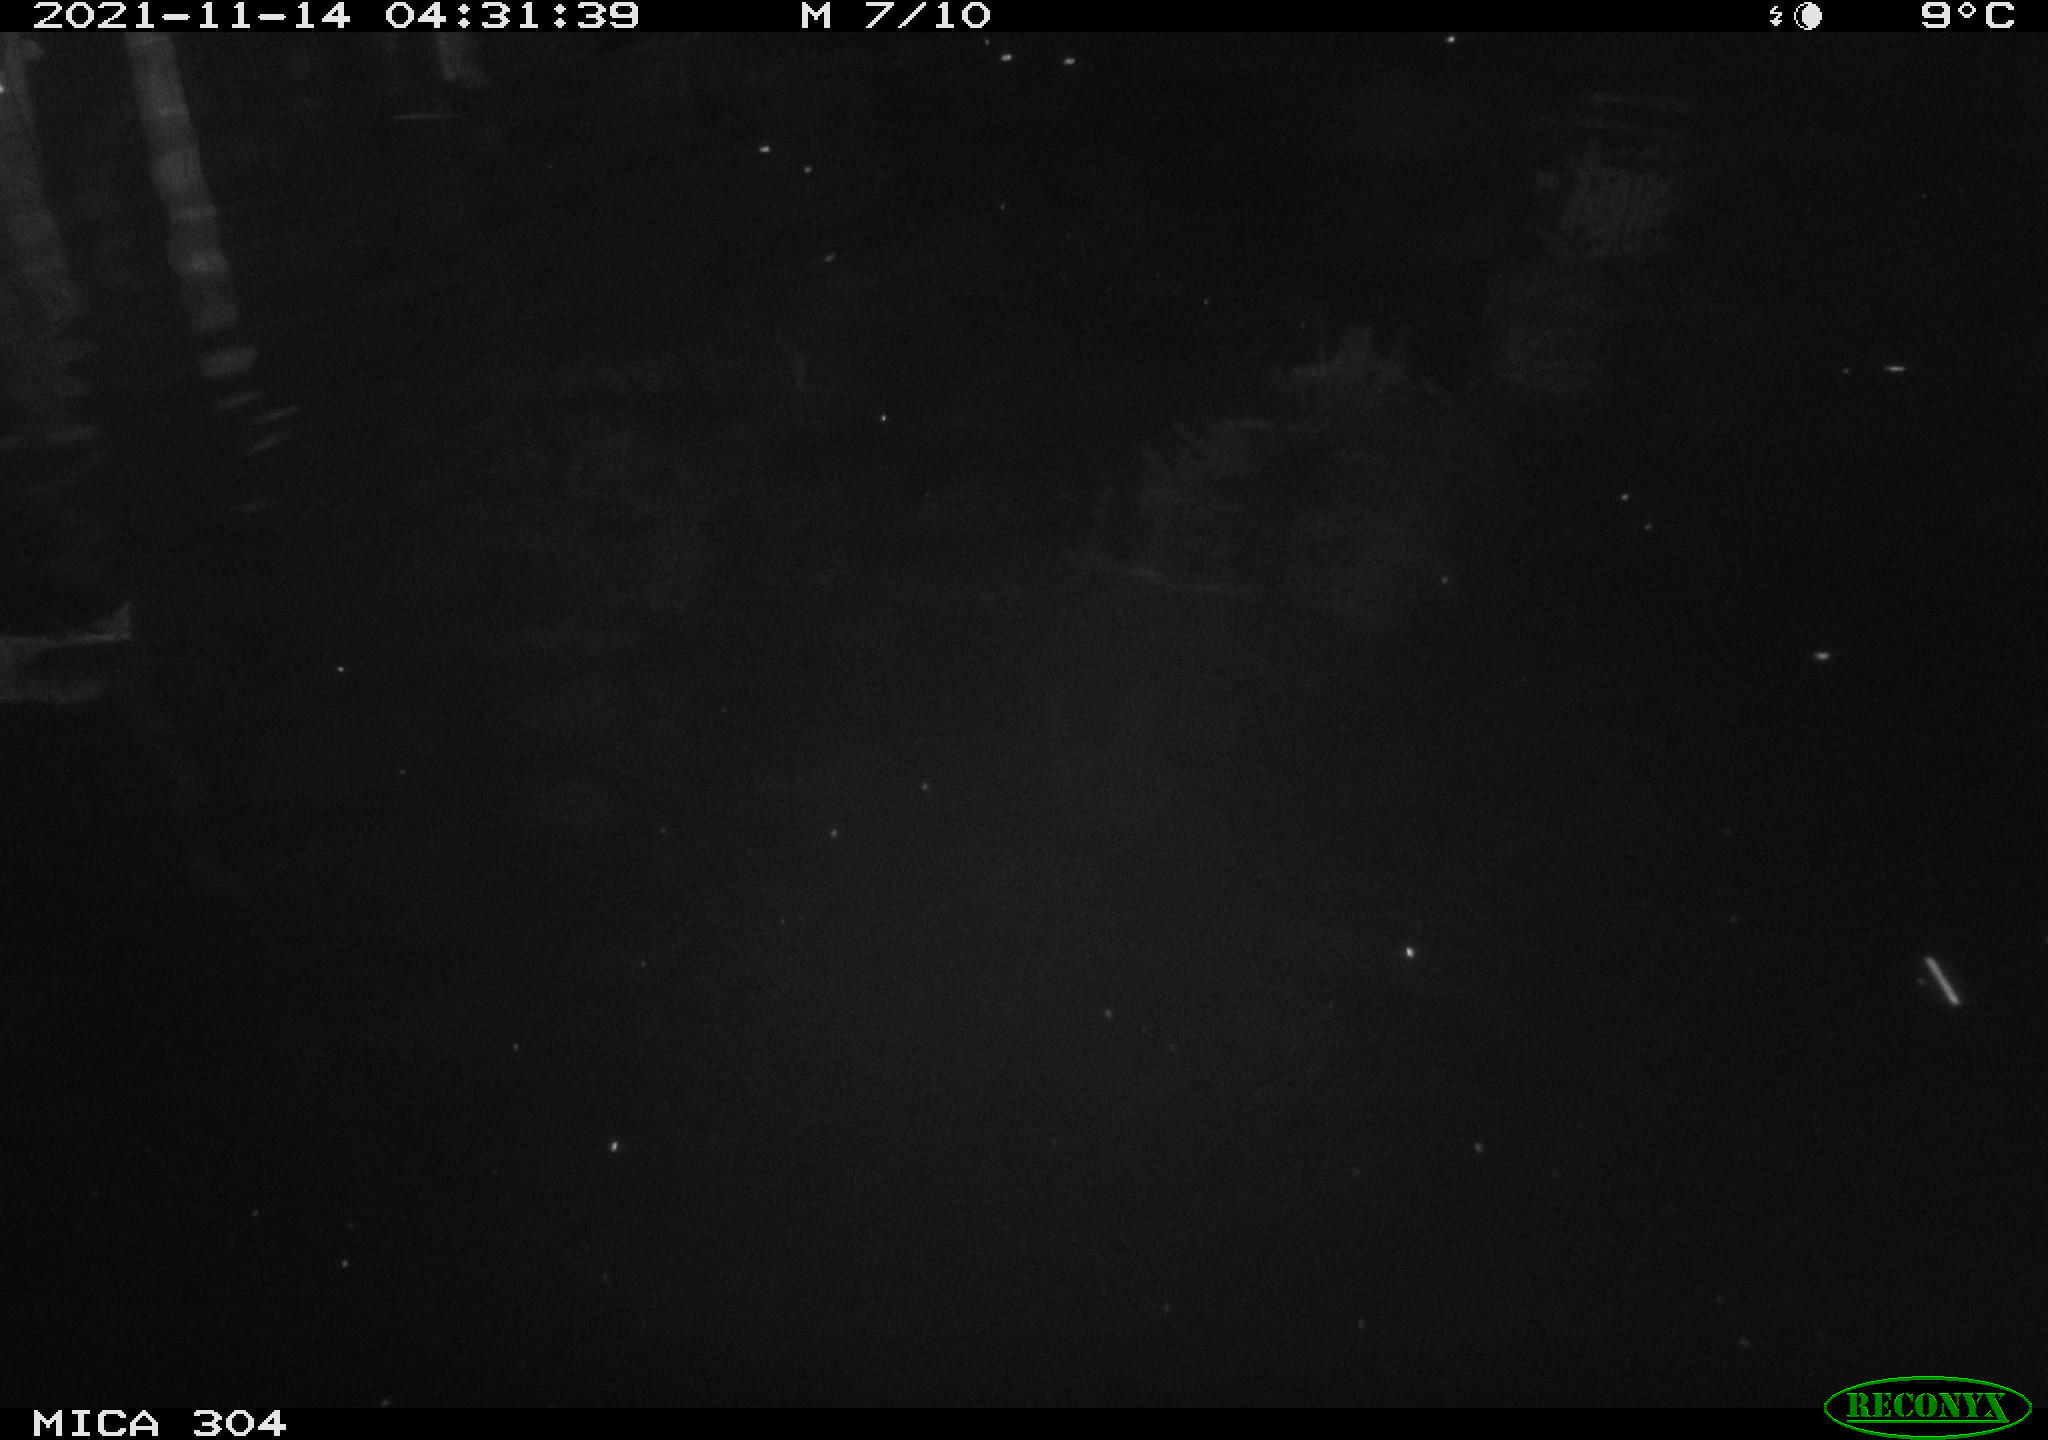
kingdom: Animalia
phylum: Chordata
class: Mammalia
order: Rodentia
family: Muridae
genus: Rattus
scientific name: Rattus norvegicus
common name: Brown rat
